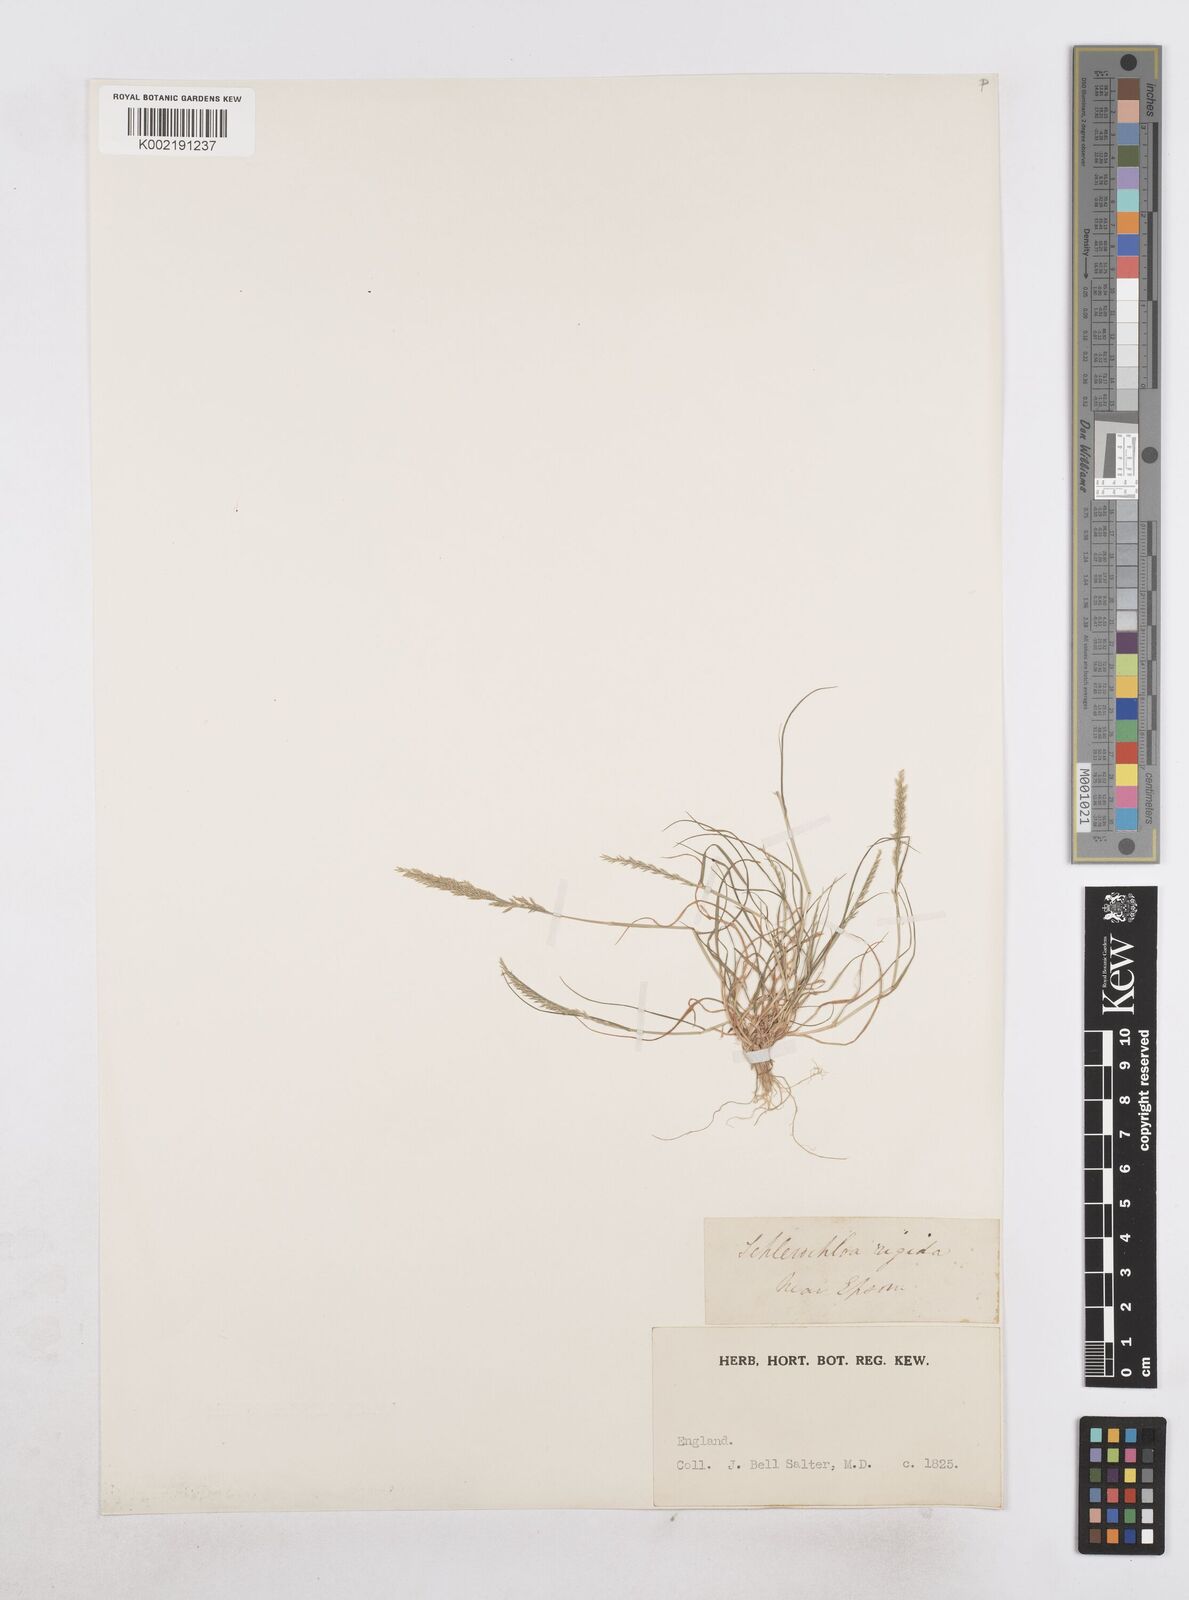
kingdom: Plantae
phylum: Tracheophyta
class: Liliopsida
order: Poales
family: Poaceae
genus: Catapodium
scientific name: Catapodium rigidum
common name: Fern-grass
